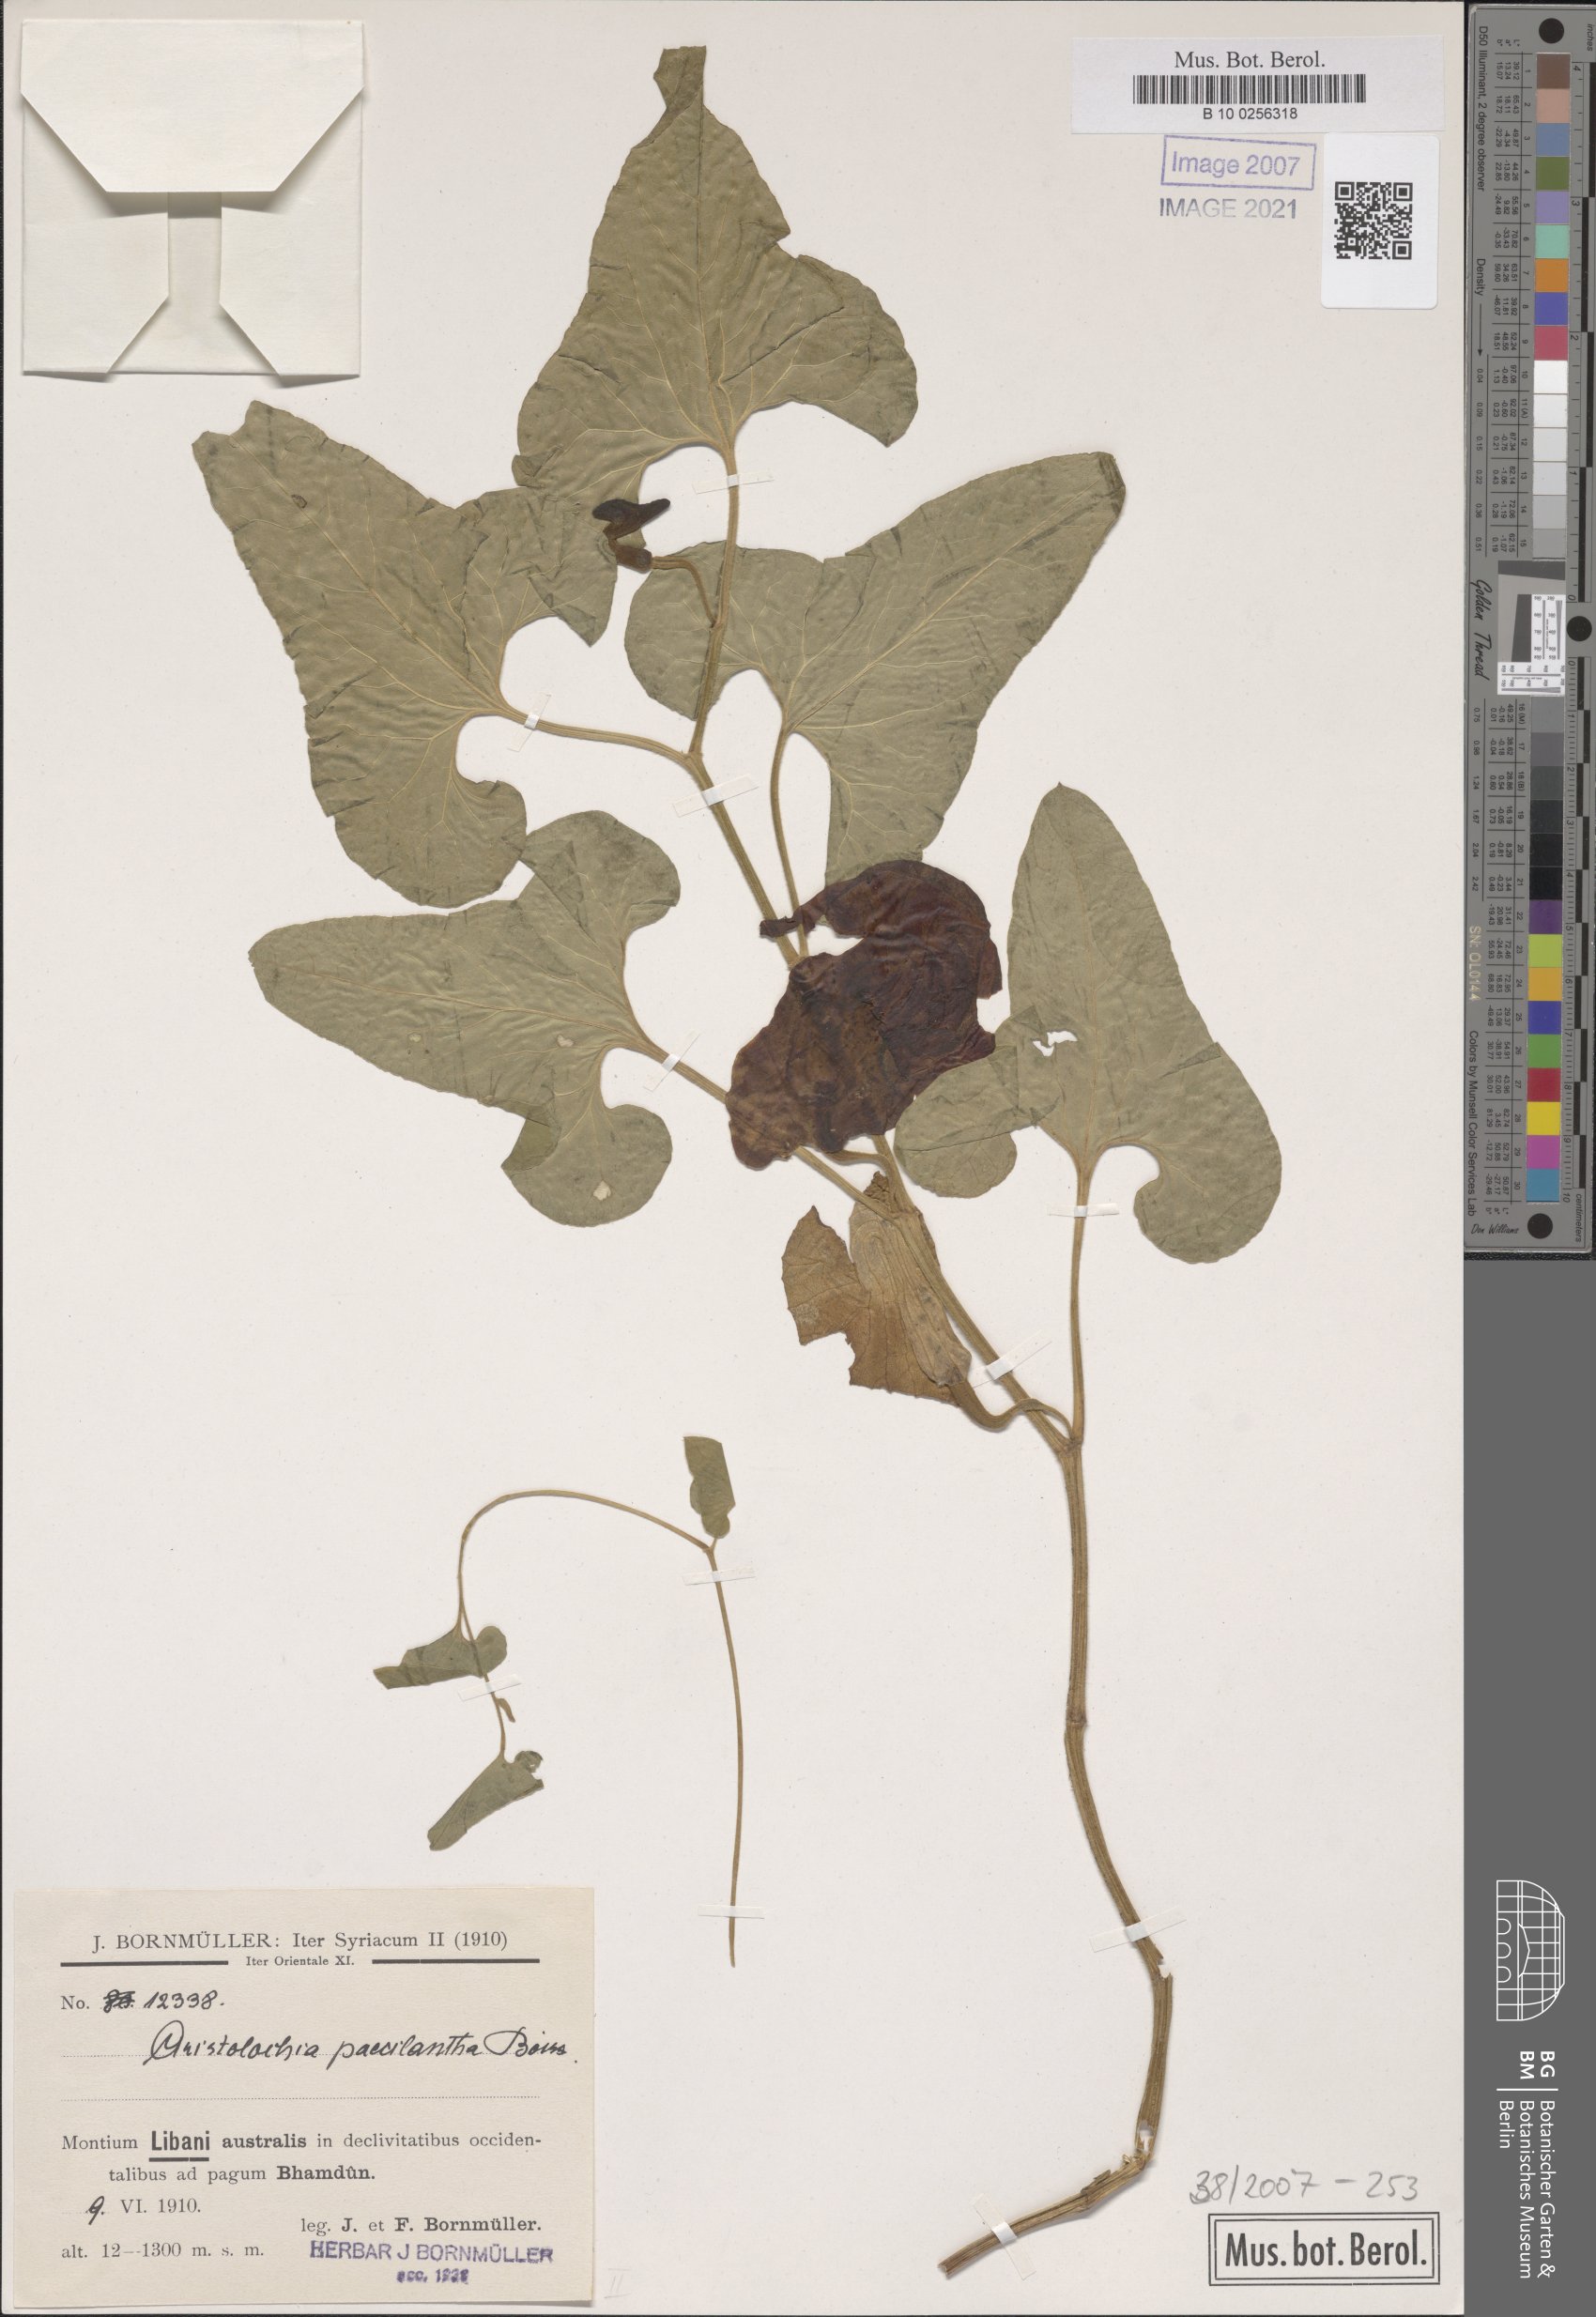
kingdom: Plantae
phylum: Tracheophyta
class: Magnoliopsida
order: Piperales
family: Aristolochiaceae
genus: Aristolochia
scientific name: Aristolochia paecilantha
